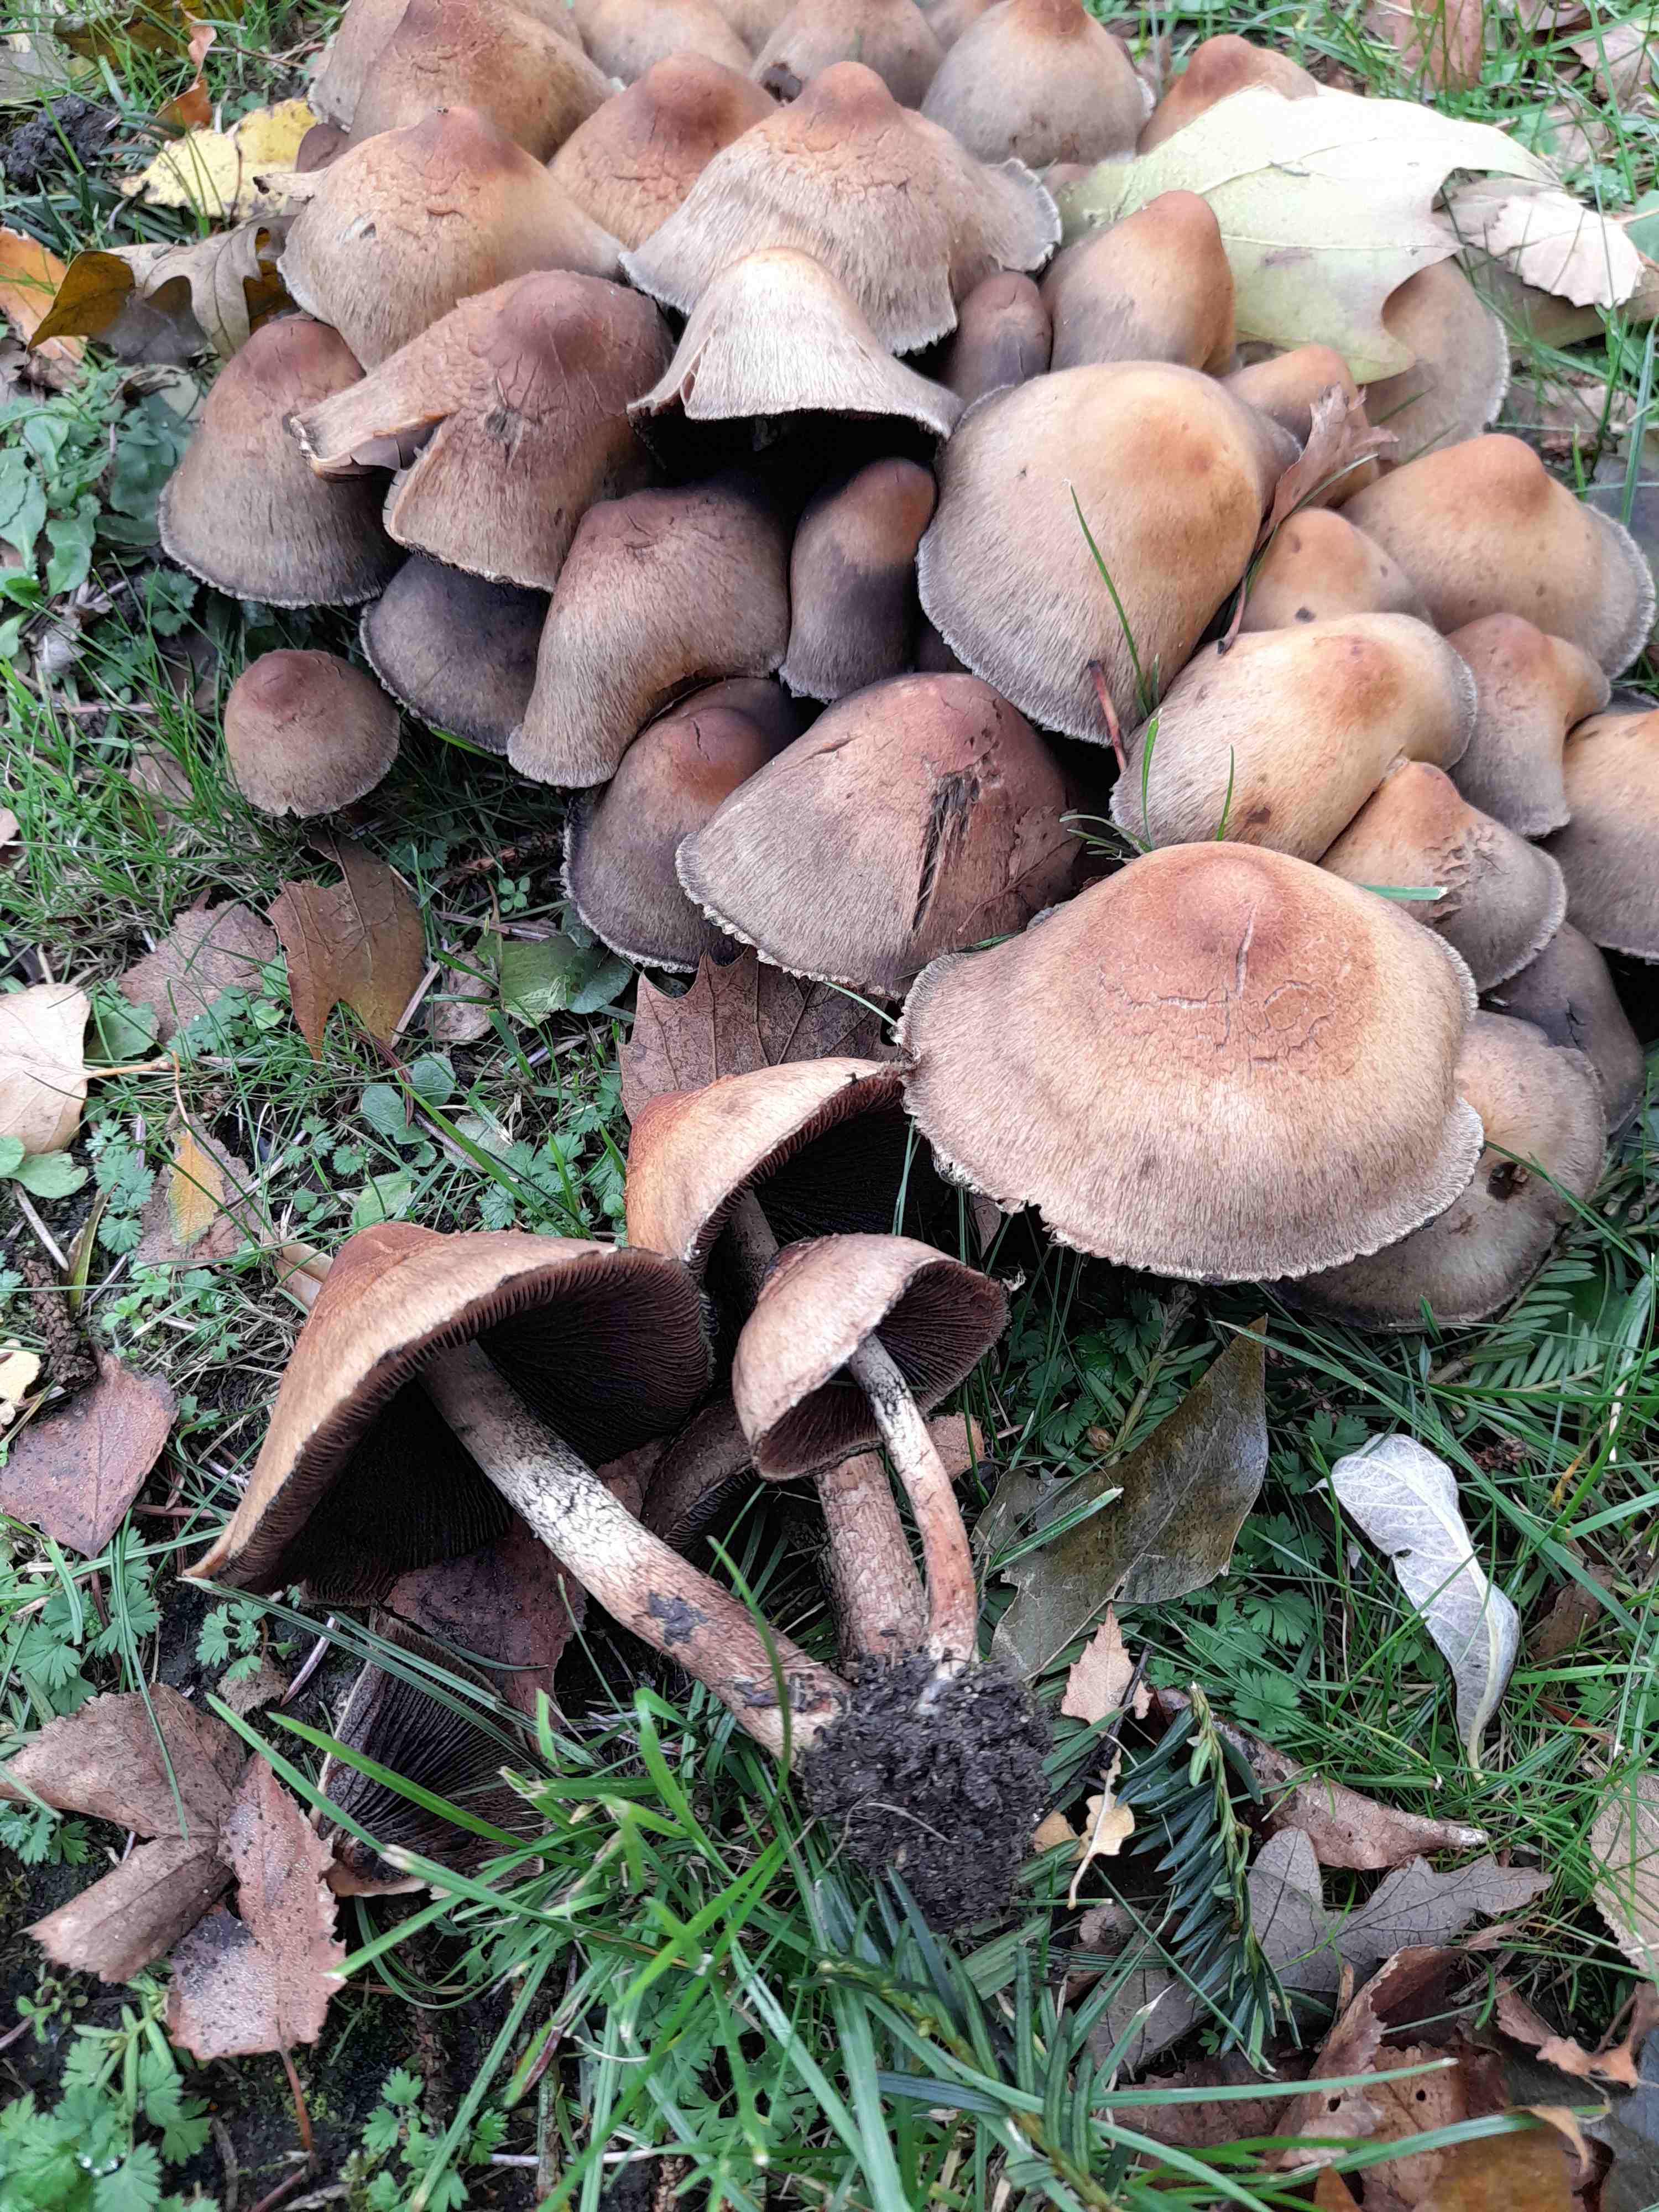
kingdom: Fungi
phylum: Basidiomycota
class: Agaricomycetes
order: Agaricales
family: Psathyrellaceae
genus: Lacrymaria
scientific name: Lacrymaria lacrymabunda
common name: grædende mørkhat
